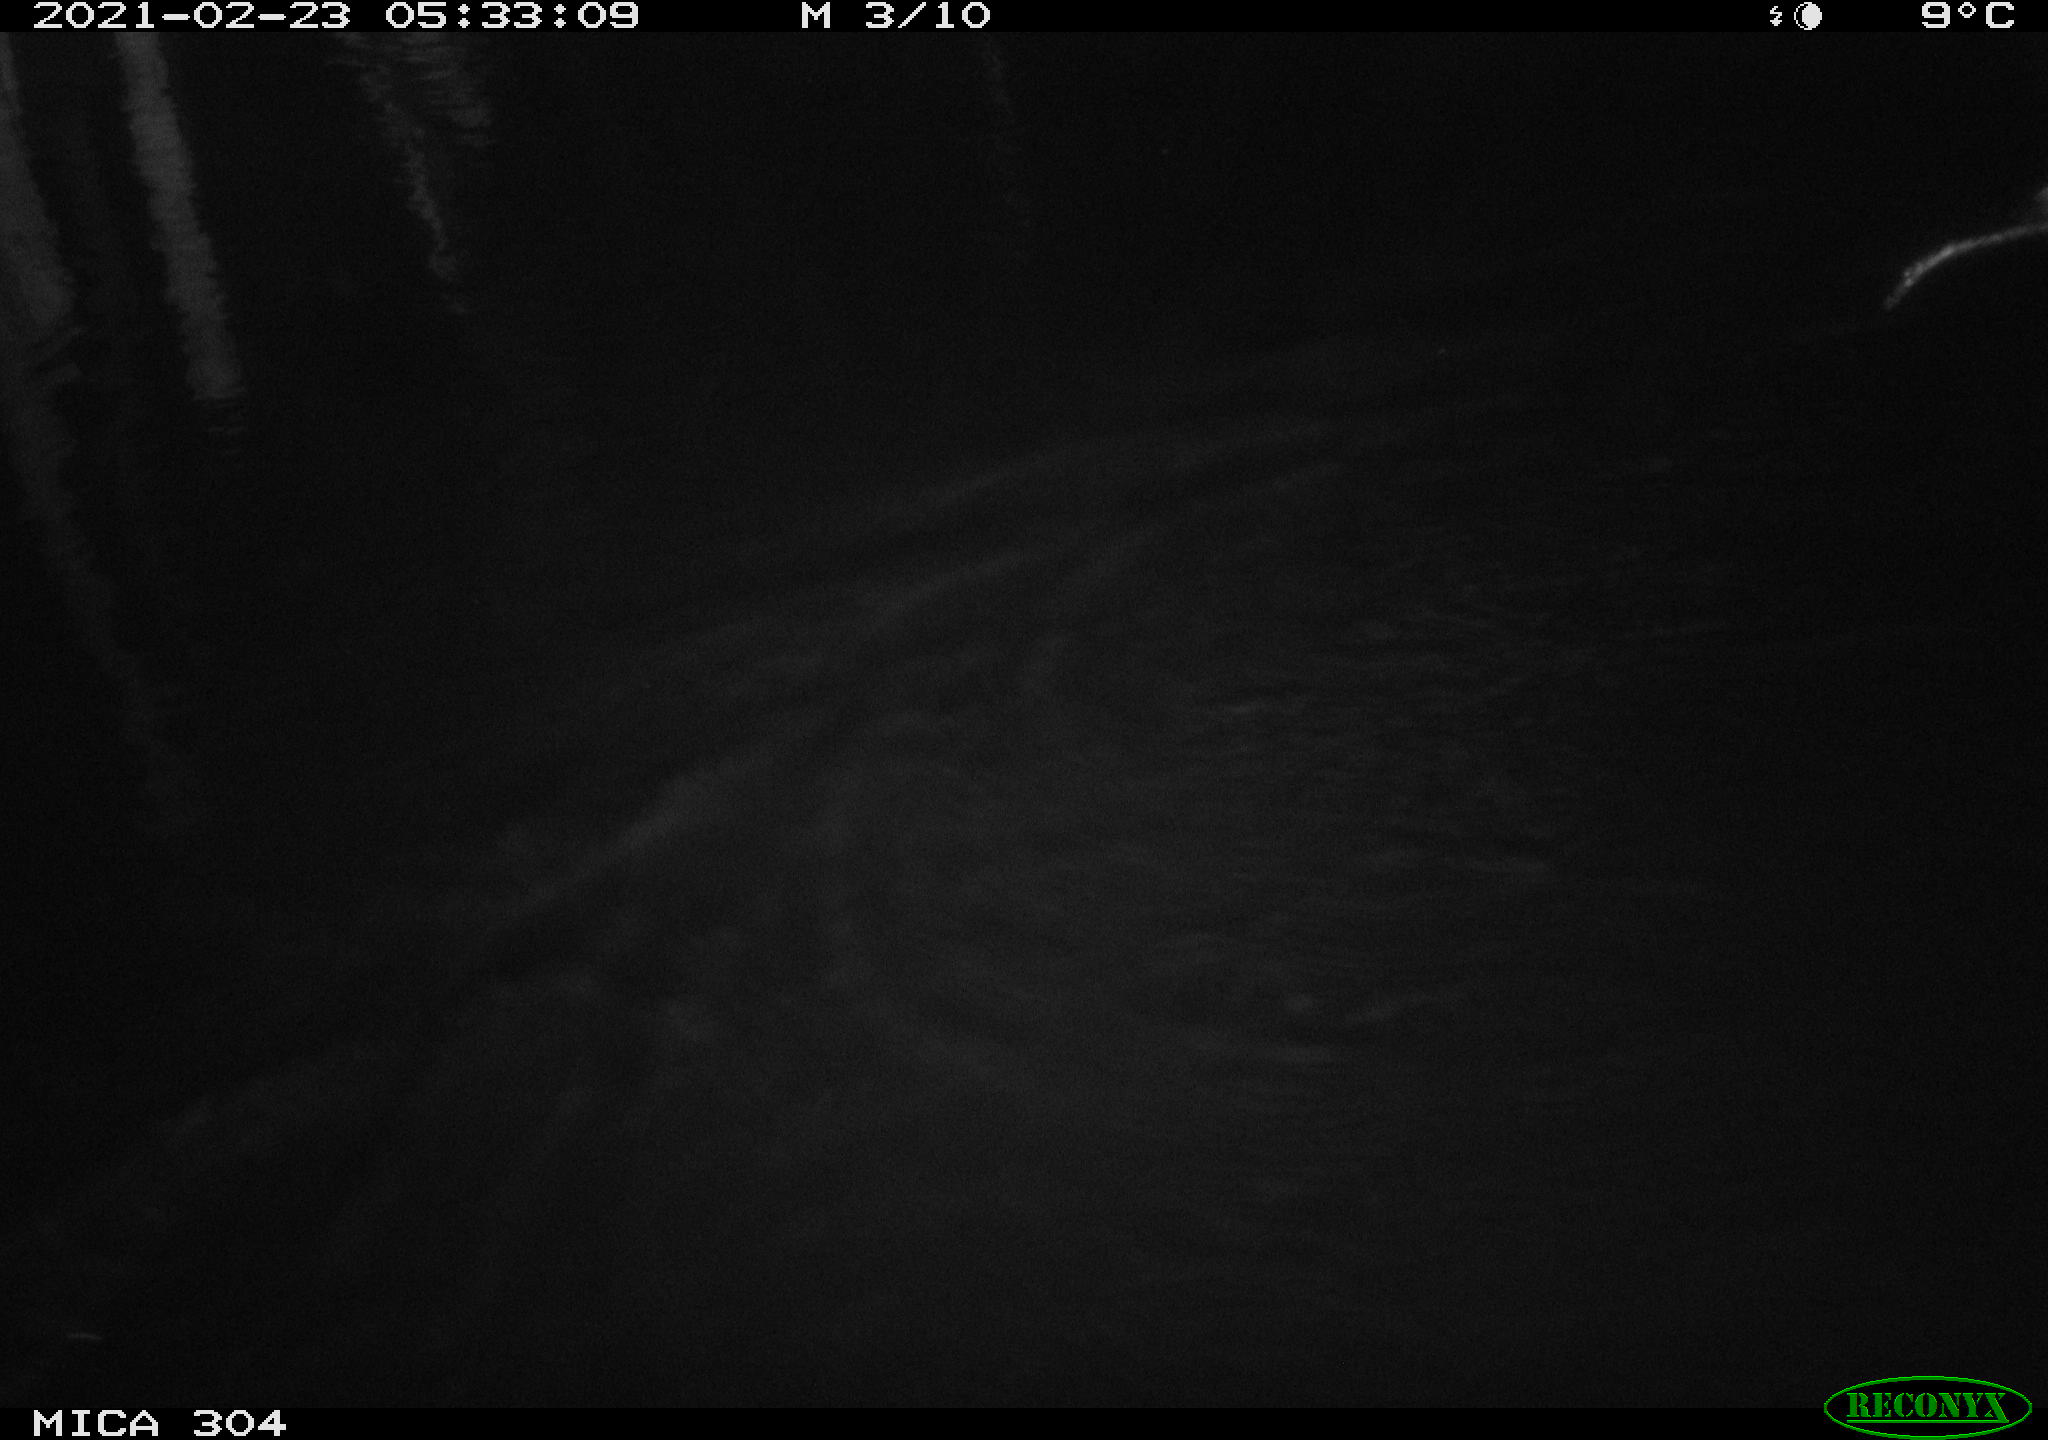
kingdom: Animalia
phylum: Chordata
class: Mammalia
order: Rodentia
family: Cricetidae
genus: Ondatra
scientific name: Ondatra zibethicus
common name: Muskrat
